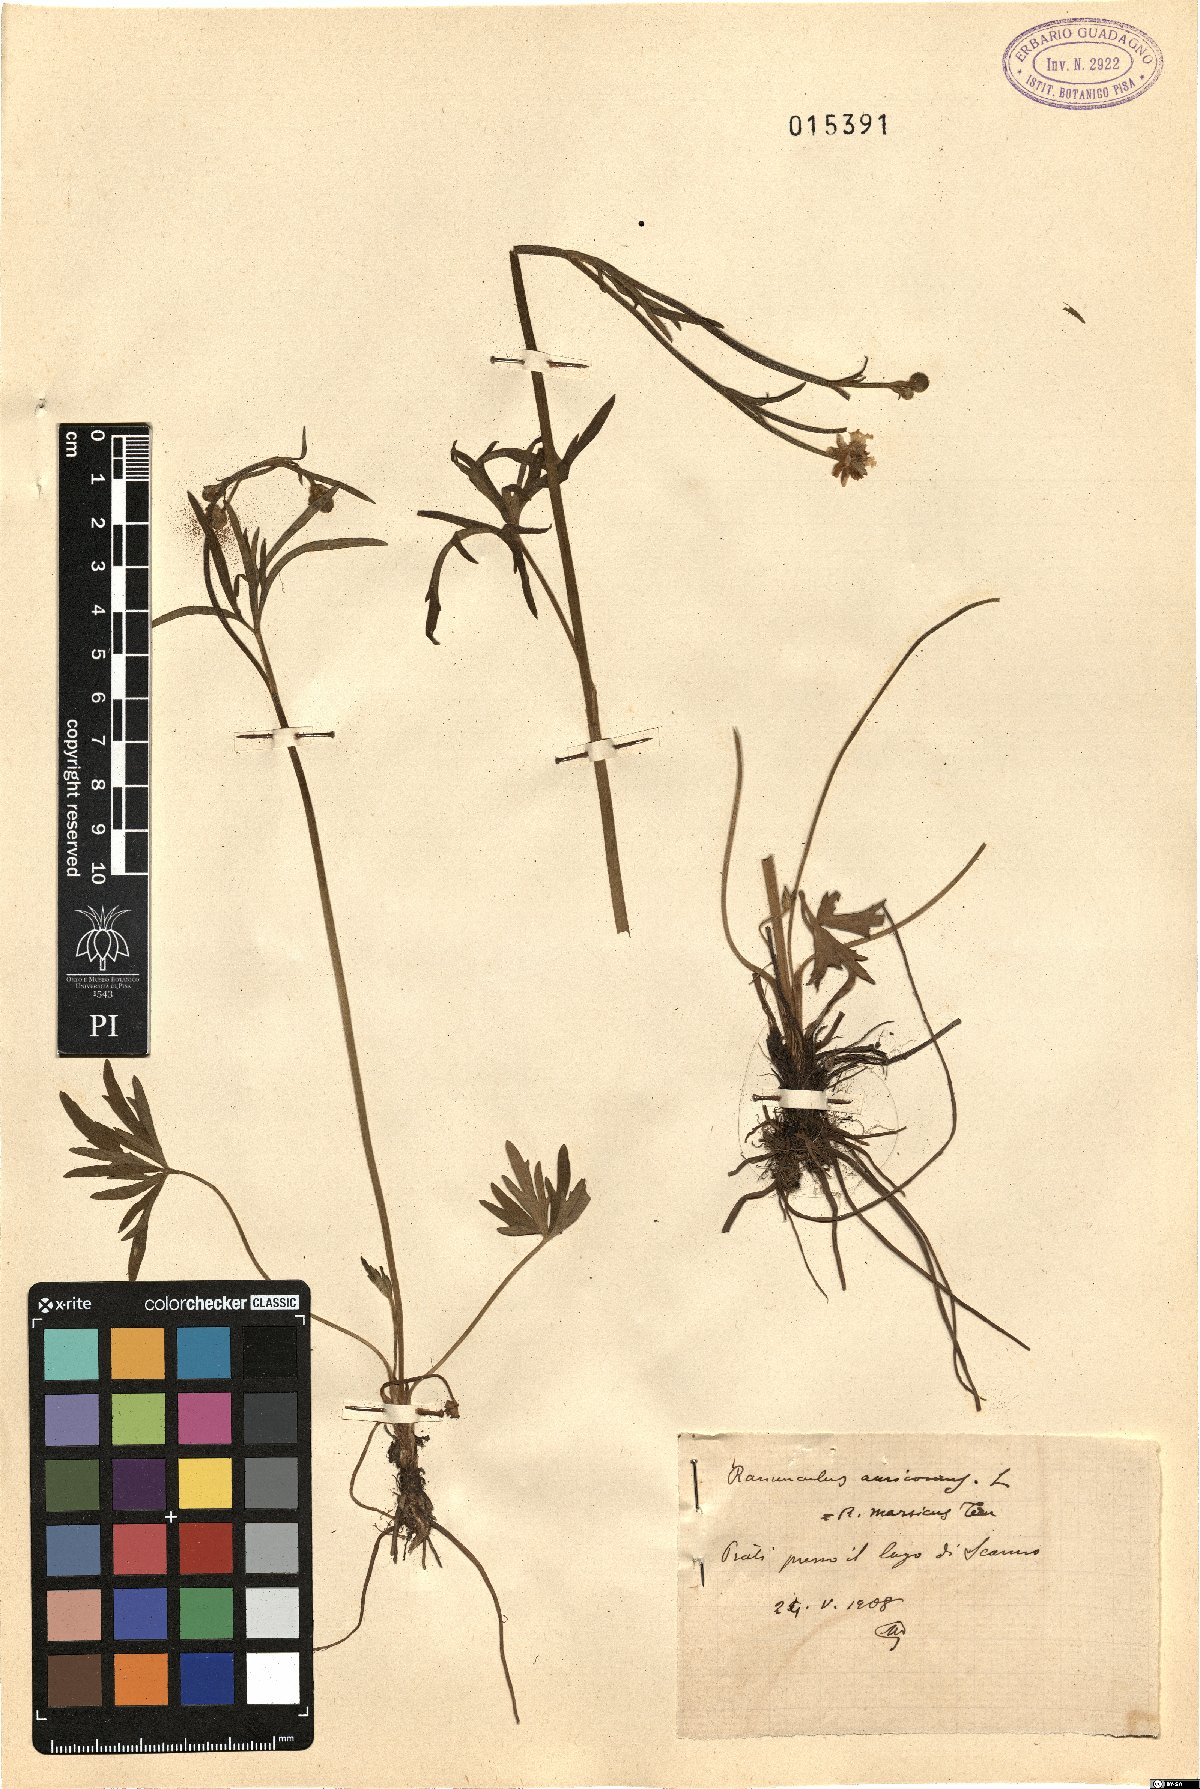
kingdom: Plantae
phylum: Tracheophyta
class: Magnoliopsida
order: Ranunculales
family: Ranunculaceae
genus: Ranunculus
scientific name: Ranunculus marsicus
